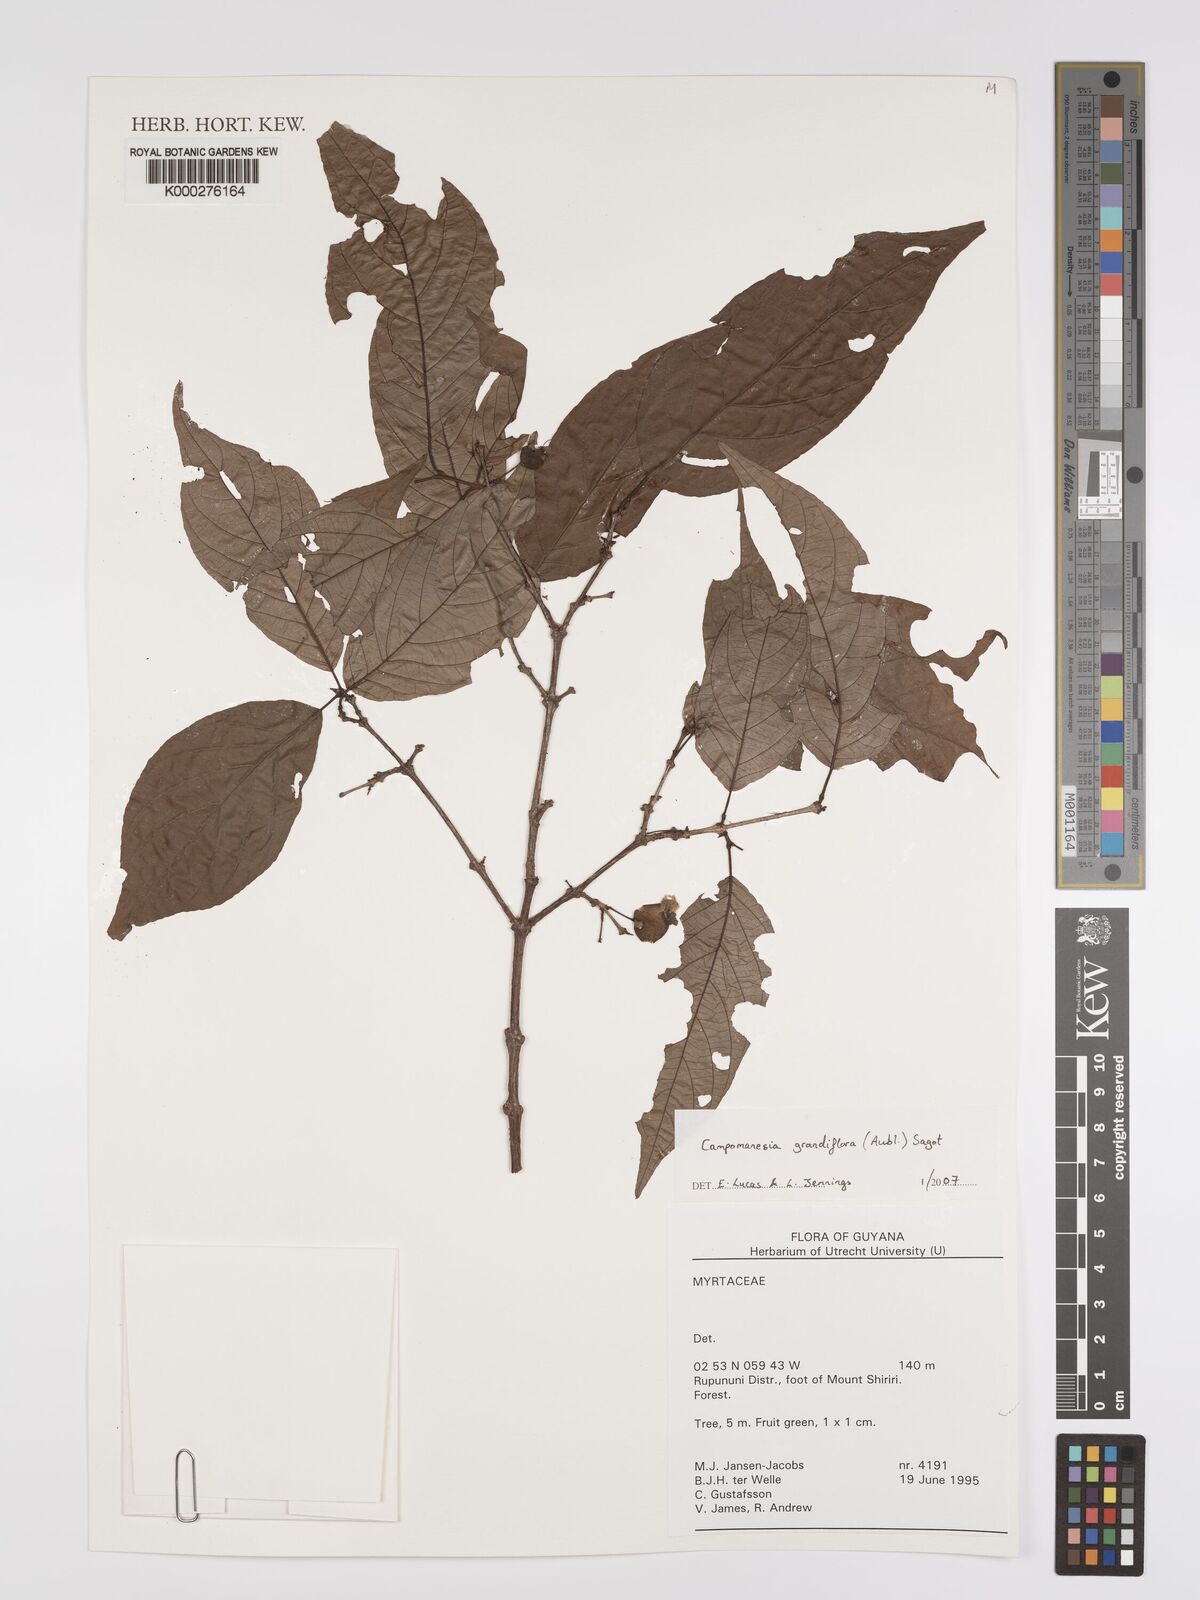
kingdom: Plantae
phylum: Tracheophyta
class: Magnoliopsida
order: Myrtales
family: Myrtaceae
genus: Campomanesia
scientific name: Campomanesia grandiflora
